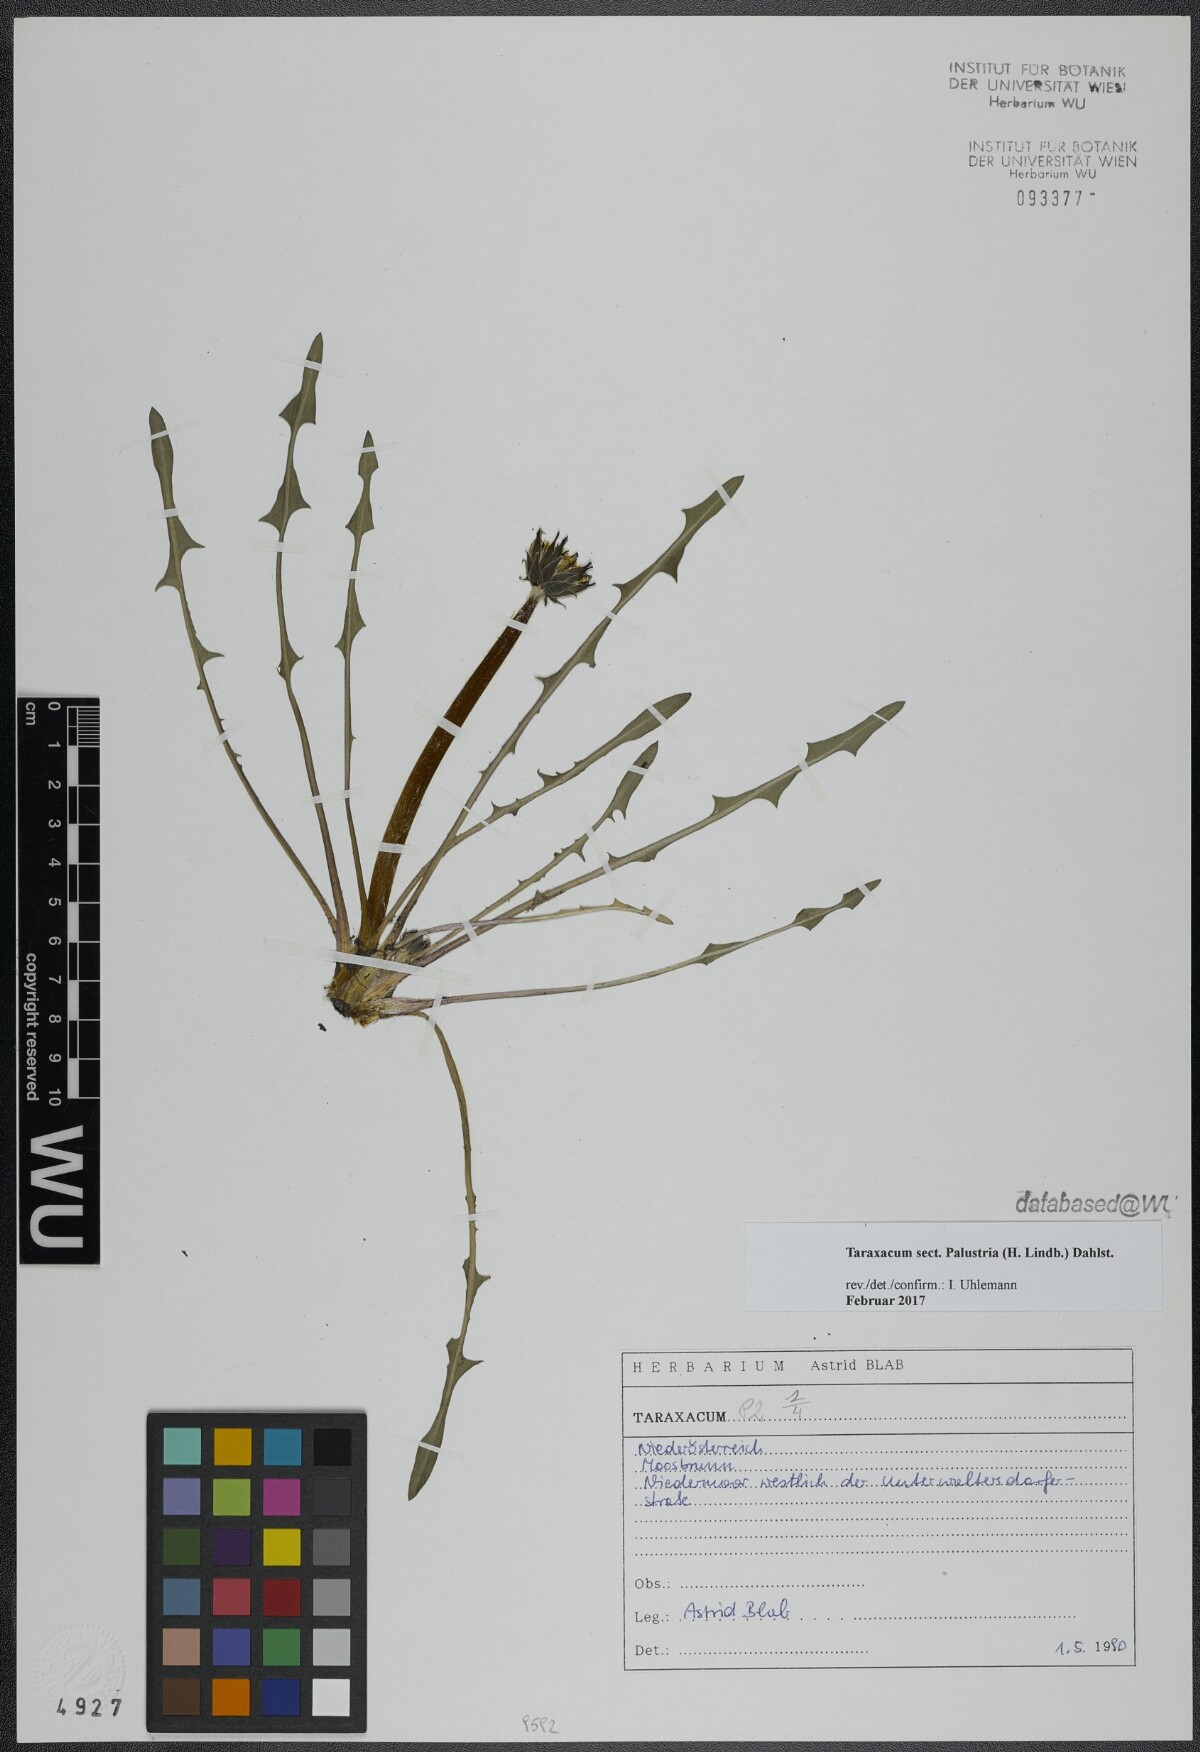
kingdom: Plantae
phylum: Tracheophyta
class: Magnoliopsida
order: Asterales
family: Asteraceae
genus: Taraxacum
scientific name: Taraxacum
